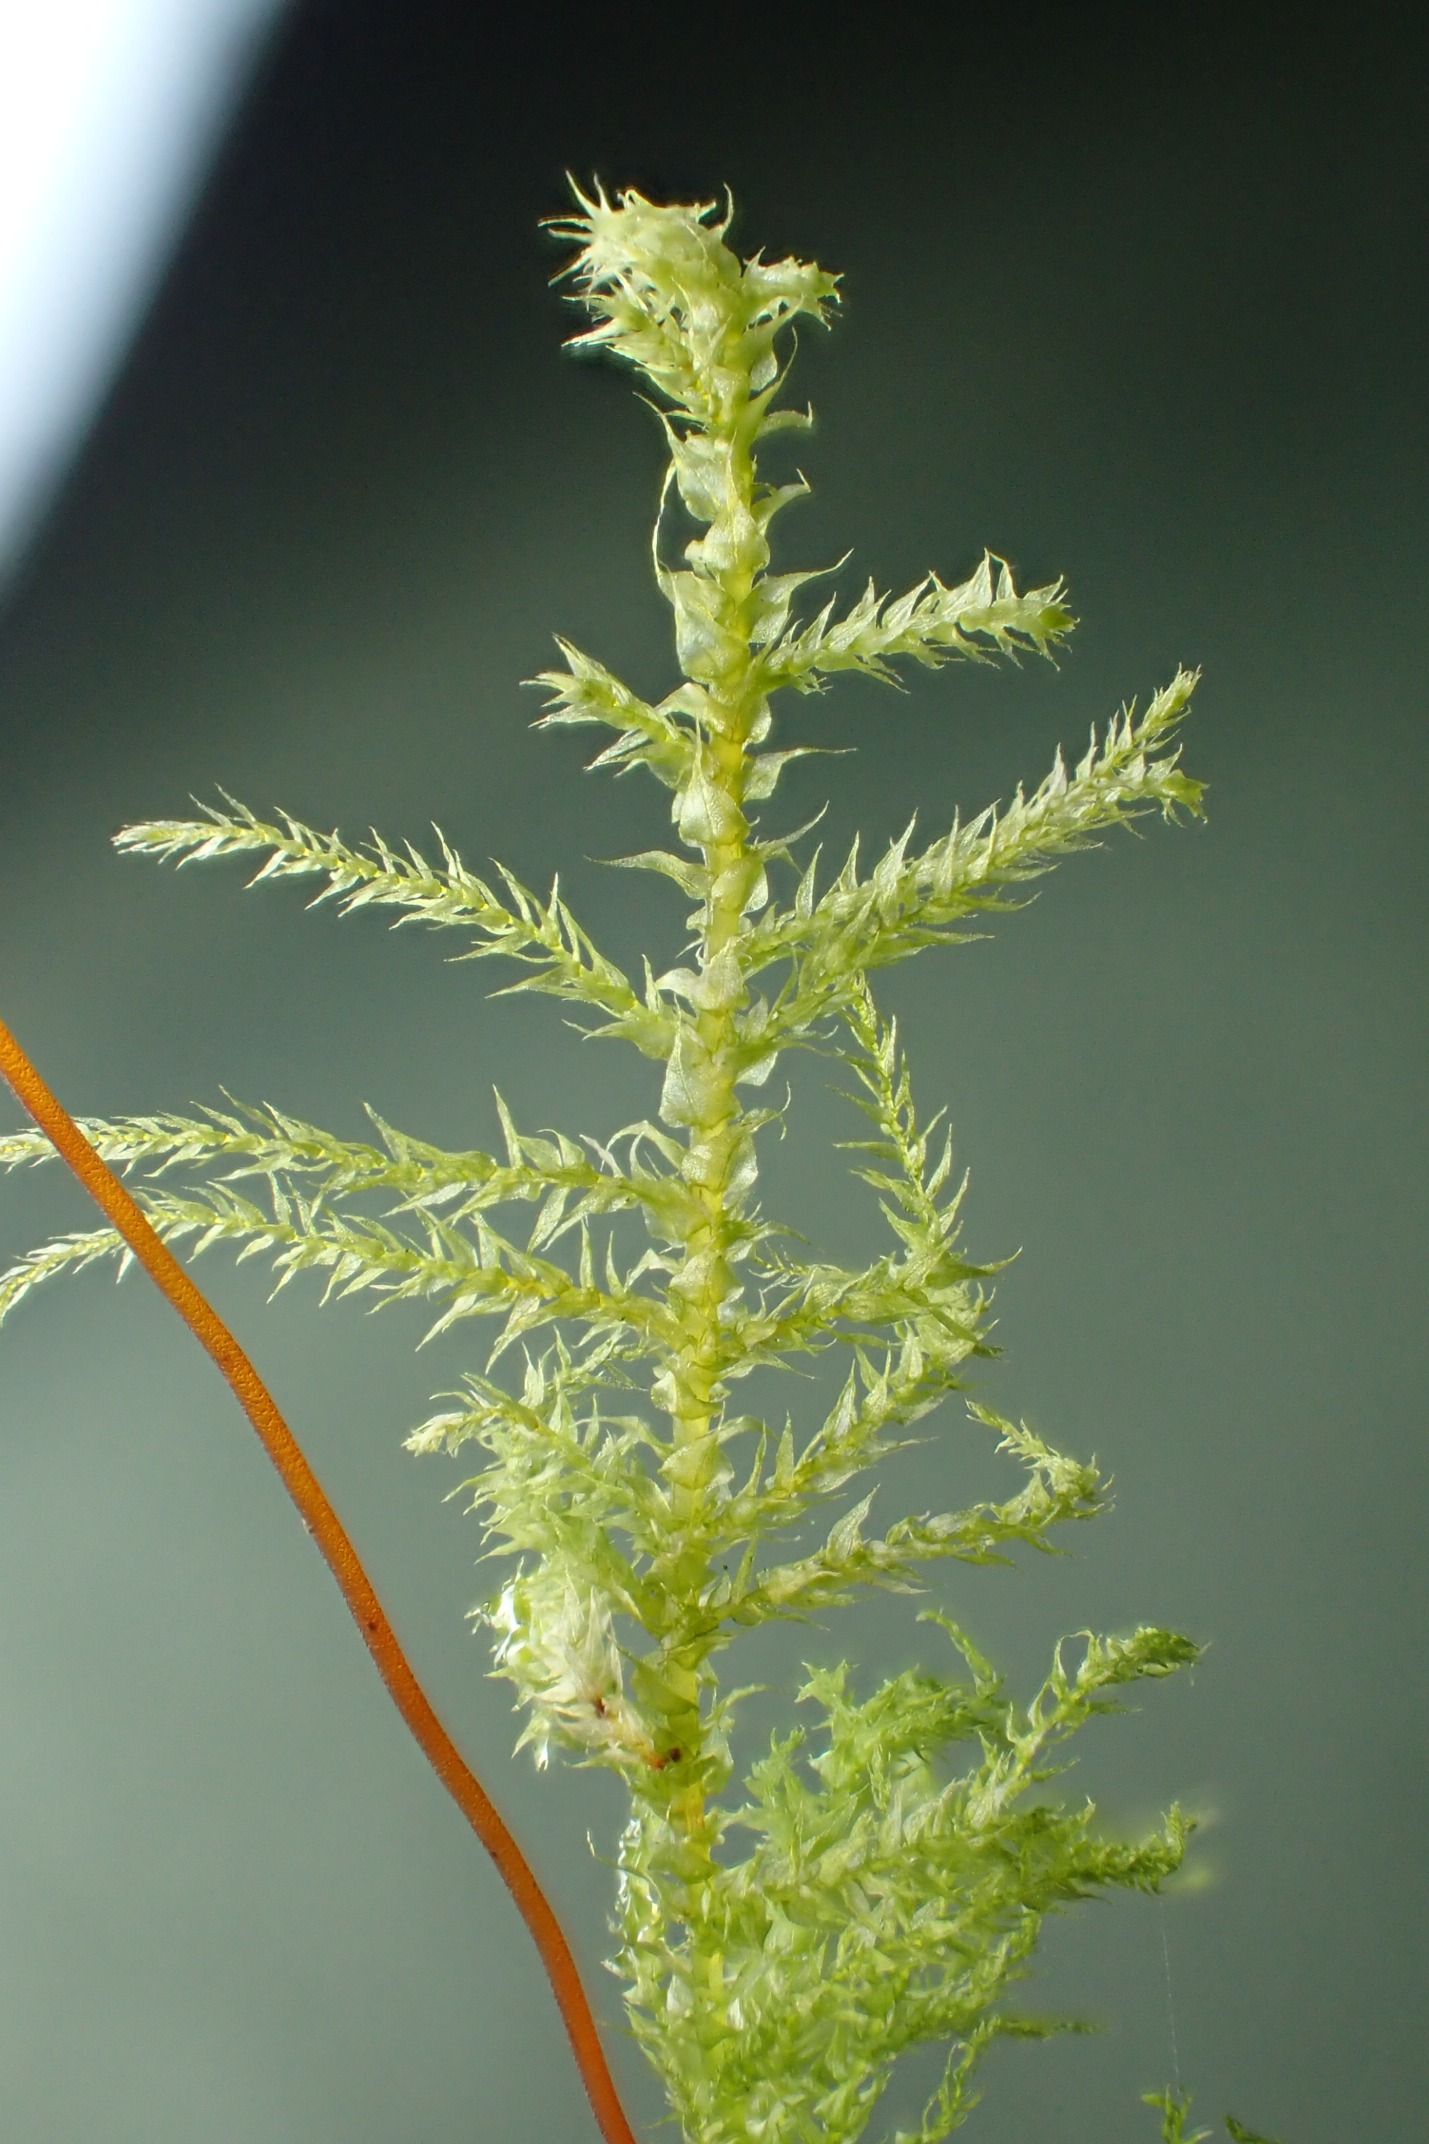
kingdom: Plantae
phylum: Bryophyta
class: Bryopsida
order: Hypnales
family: Brachytheciaceae
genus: Kindbergia
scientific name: Kindbergia praelonga
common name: Forskelligbladet vortetand
